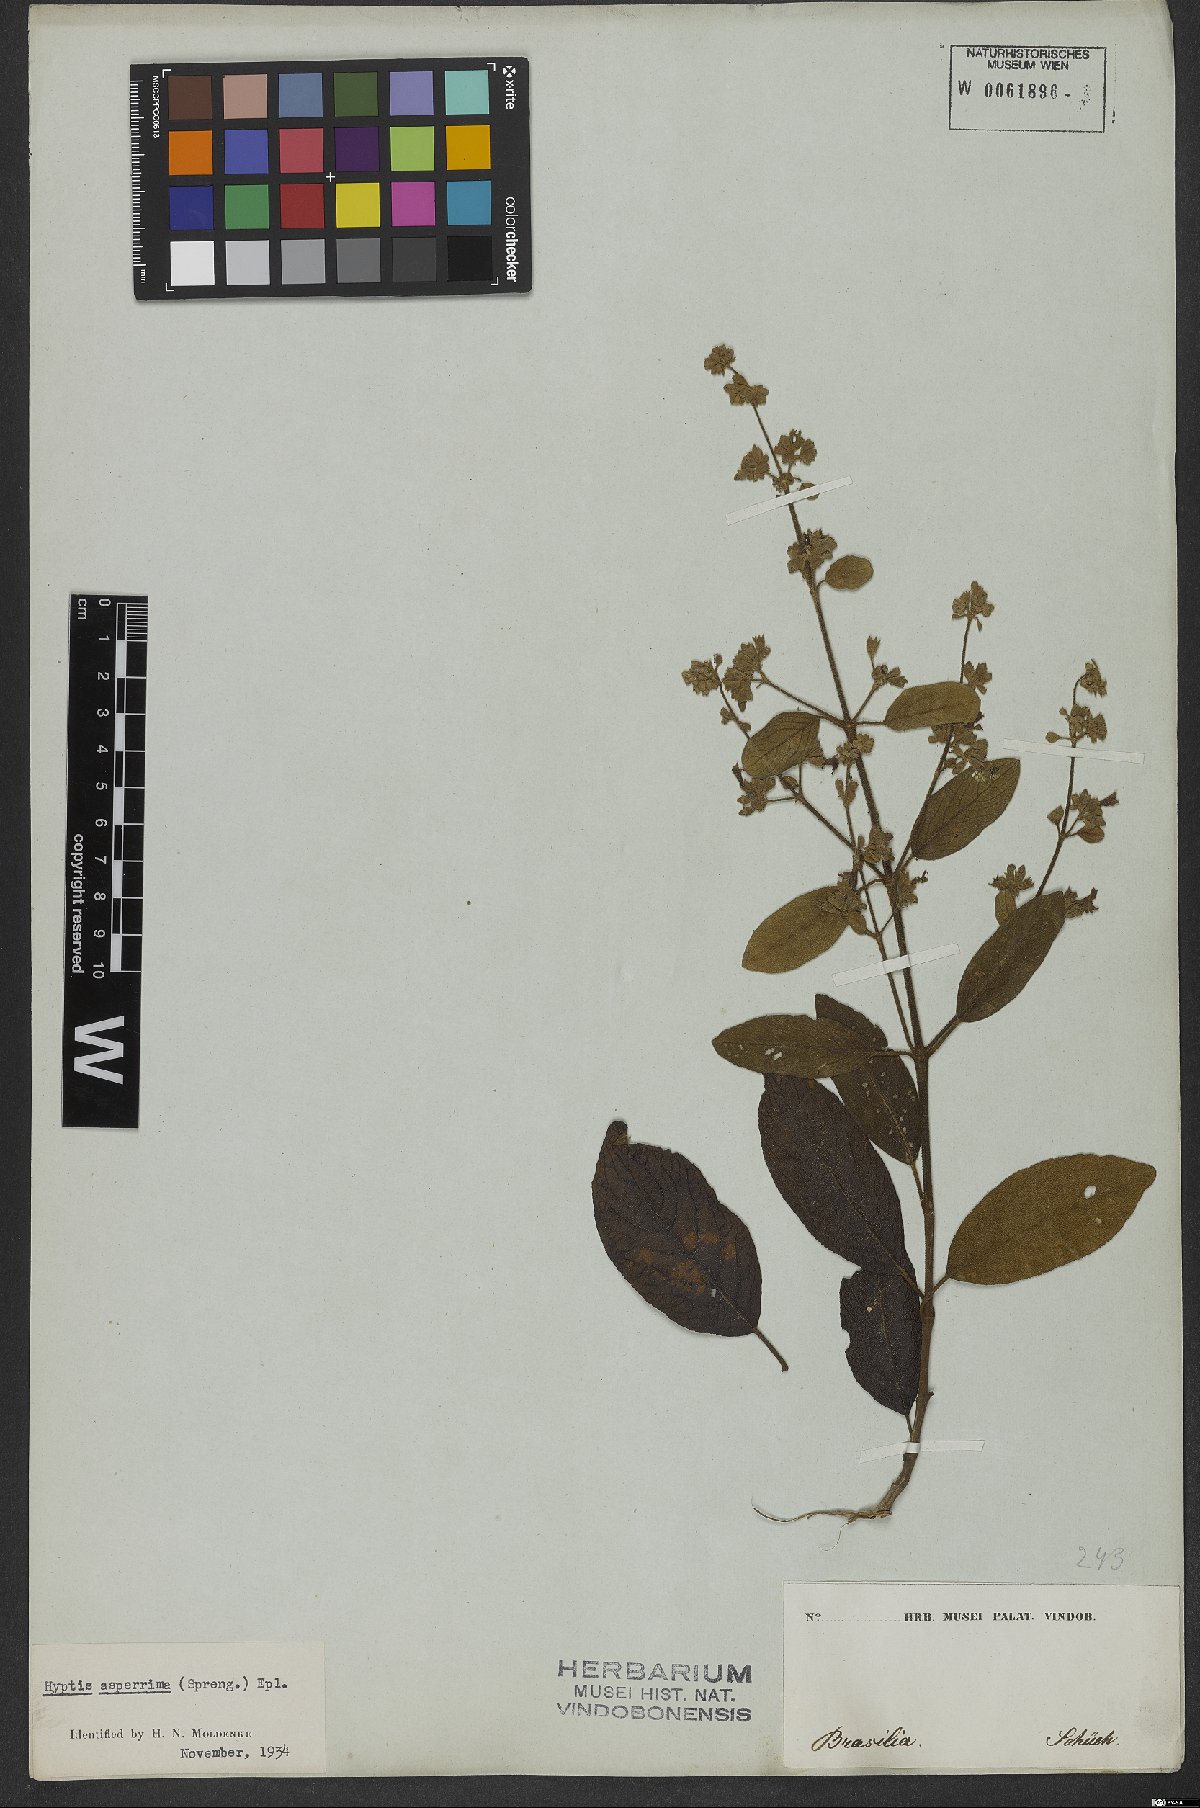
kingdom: Plantae
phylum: Tracheophyta
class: Magnoliopsida
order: Lamiales
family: Lamiaceae
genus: Hyptidendron
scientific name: Hyptidendron asperrimum
